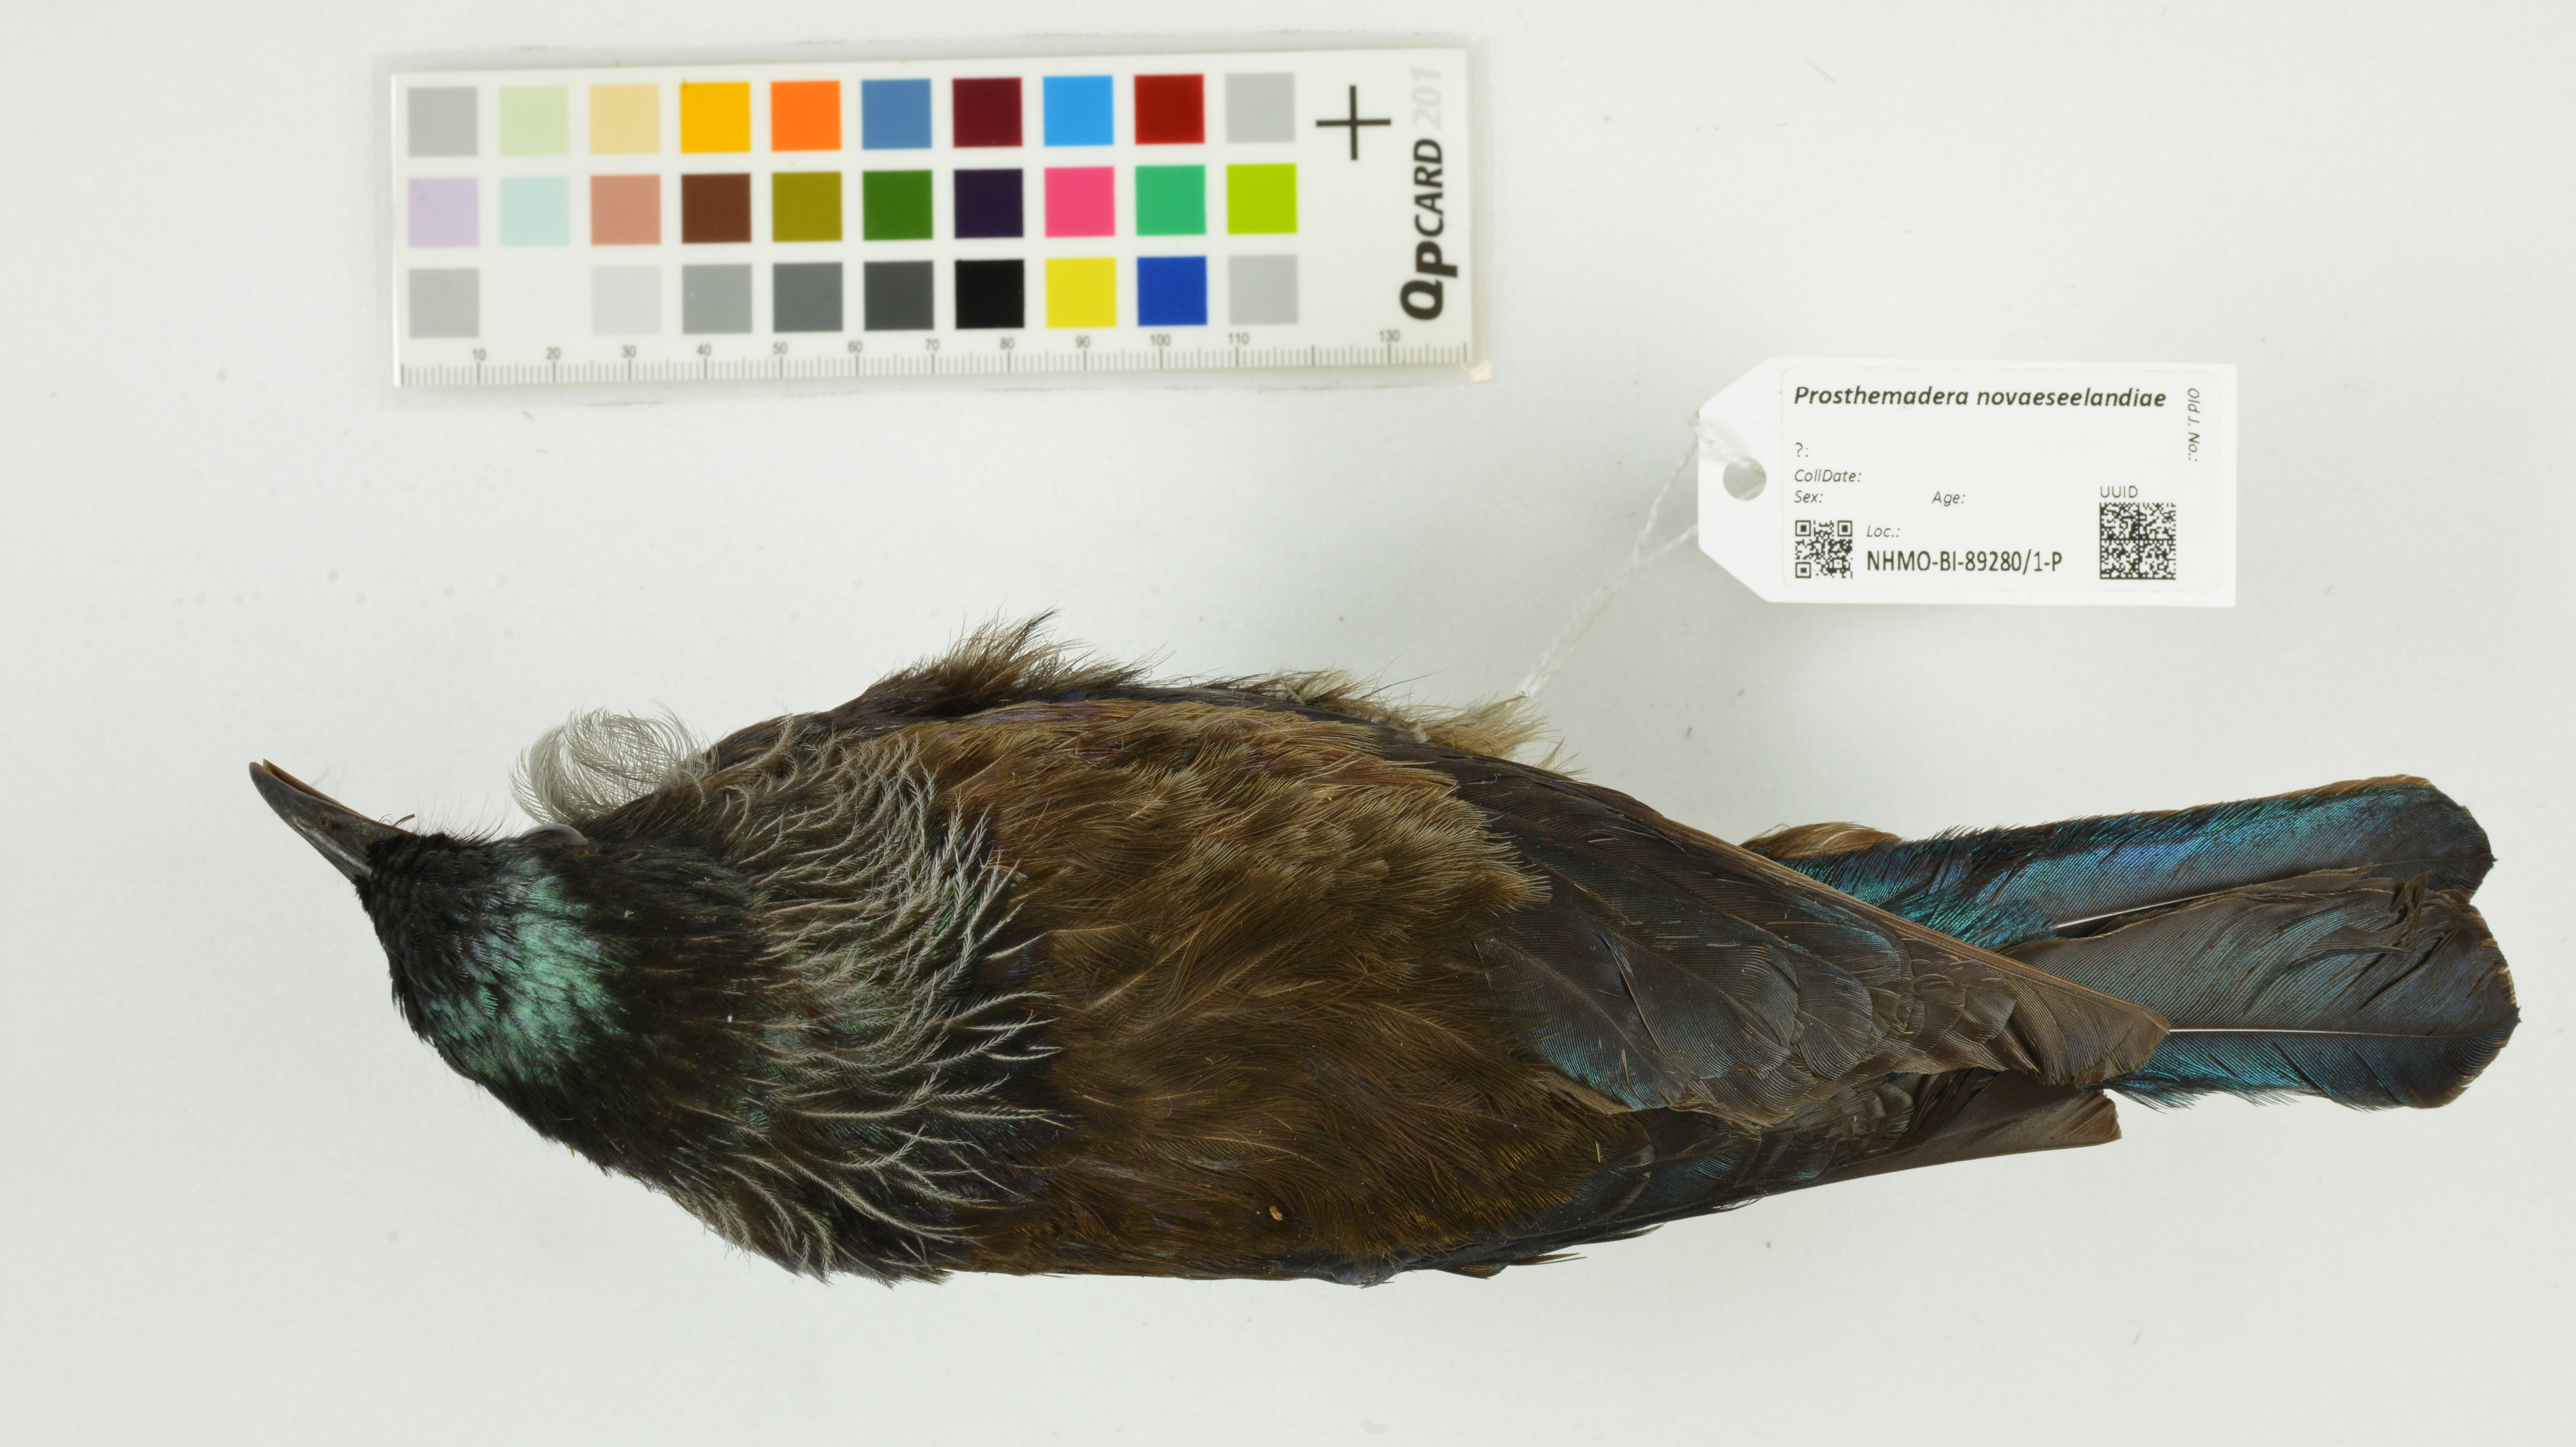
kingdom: Animalia
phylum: Chordata
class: Aves
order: Passeriformes
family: Meliphagidae
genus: Prosthemadera
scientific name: Prosthemadera novaeseelandiae
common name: Tui
